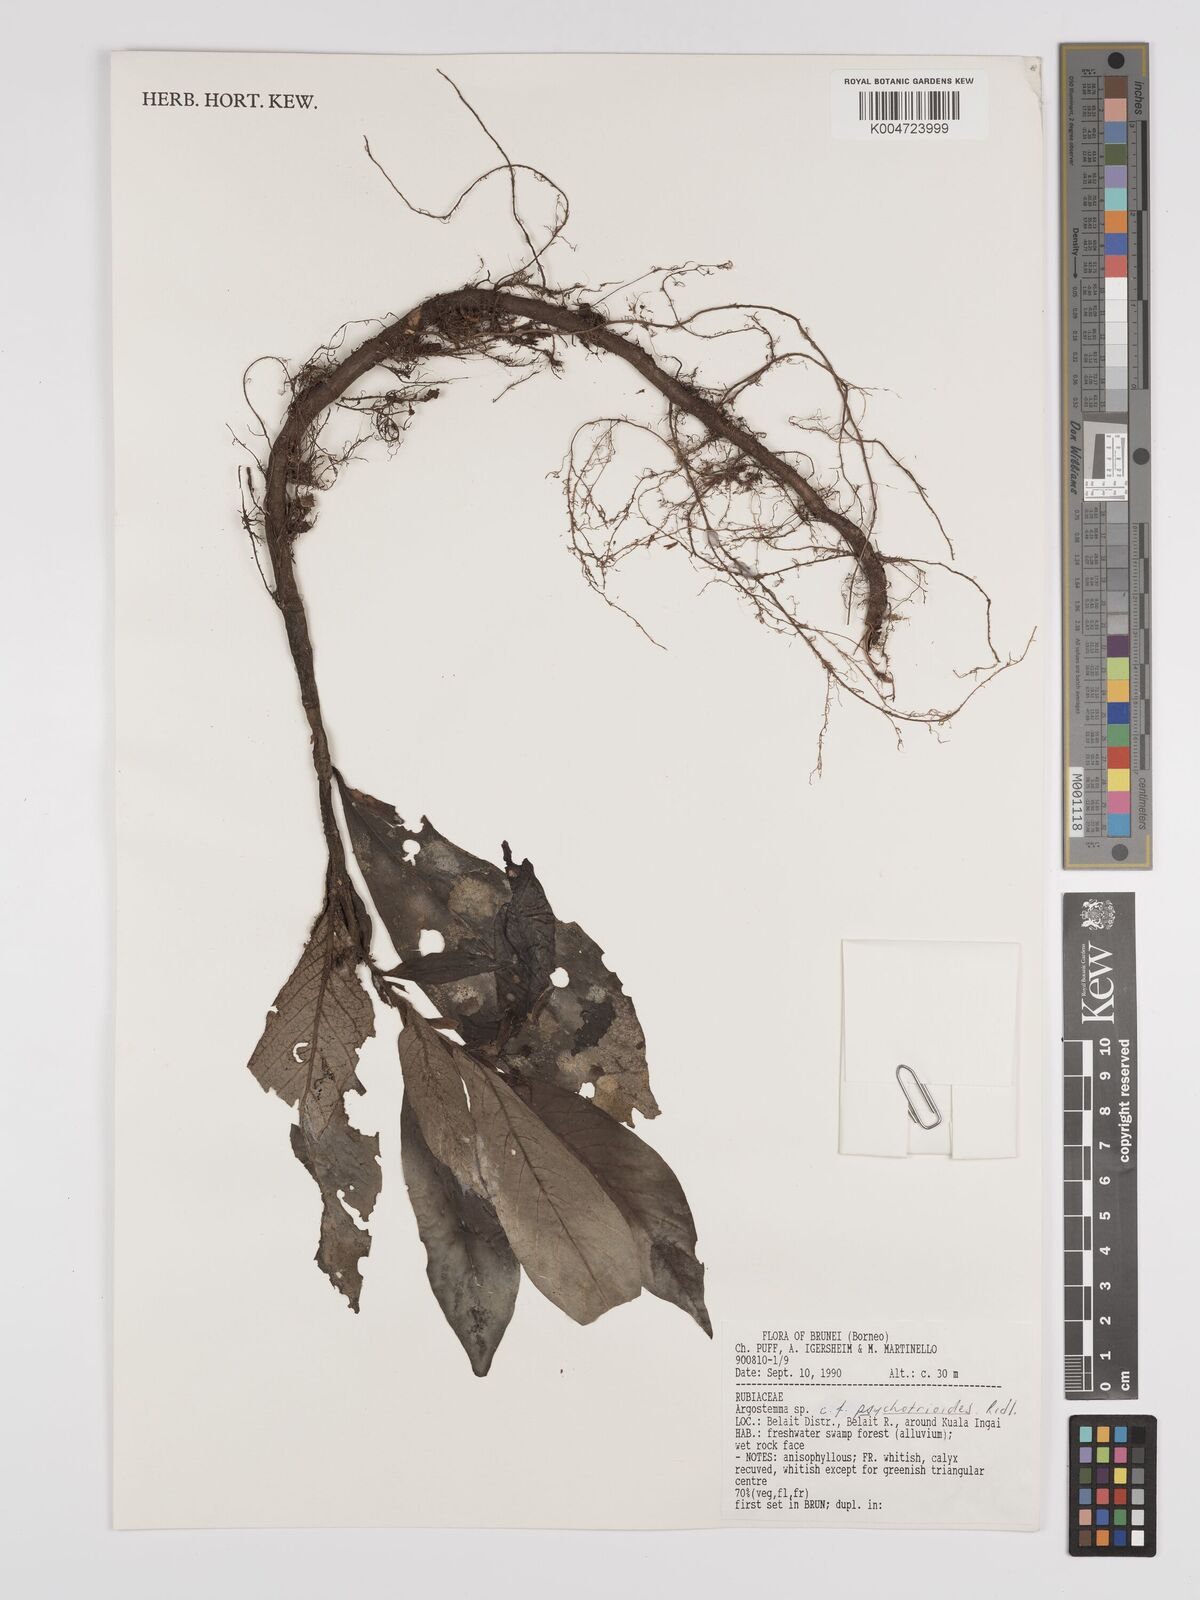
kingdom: Plantae
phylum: Tracheophyta
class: Magnoliopsida
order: Gentianales
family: Rubiaceae
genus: Argostemma
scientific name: Argostemma psychotrioides
